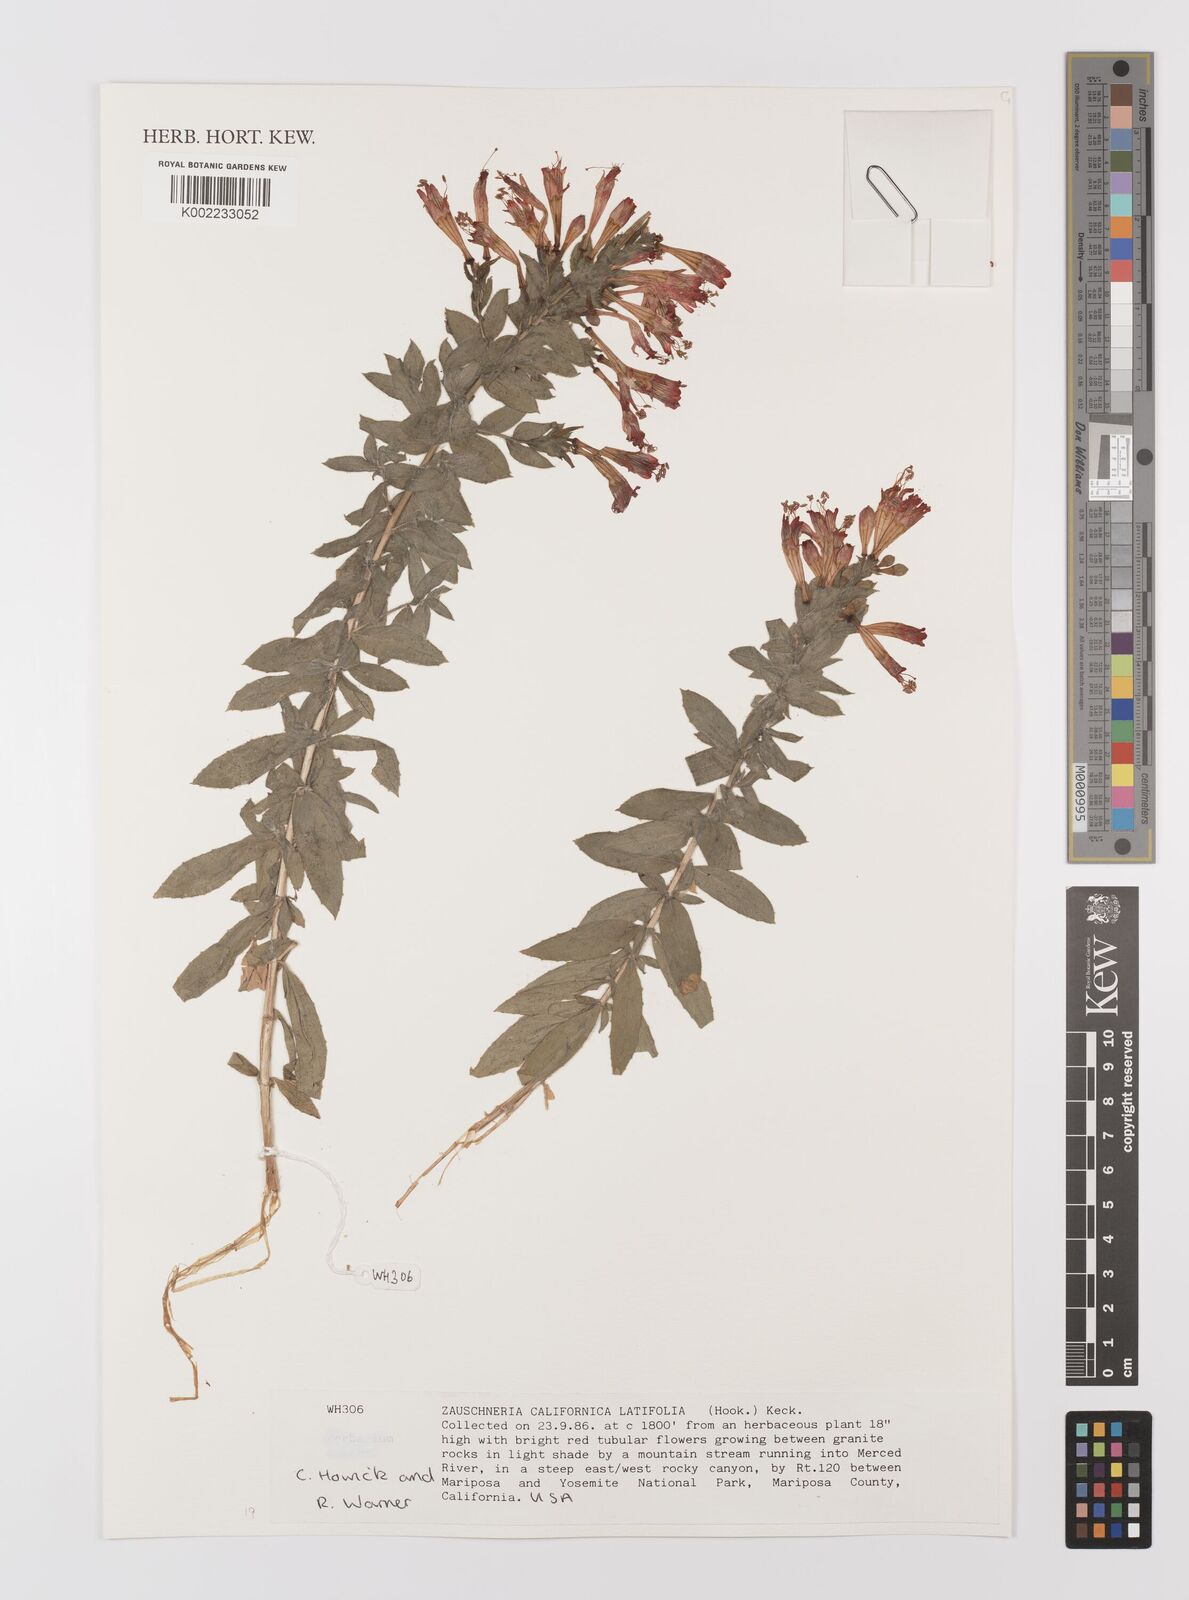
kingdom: Plantae
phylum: Tracheophyta
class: Magnoliopsida
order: Myrtales
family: Onagraceae
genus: Epilobium
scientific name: Epilobium
